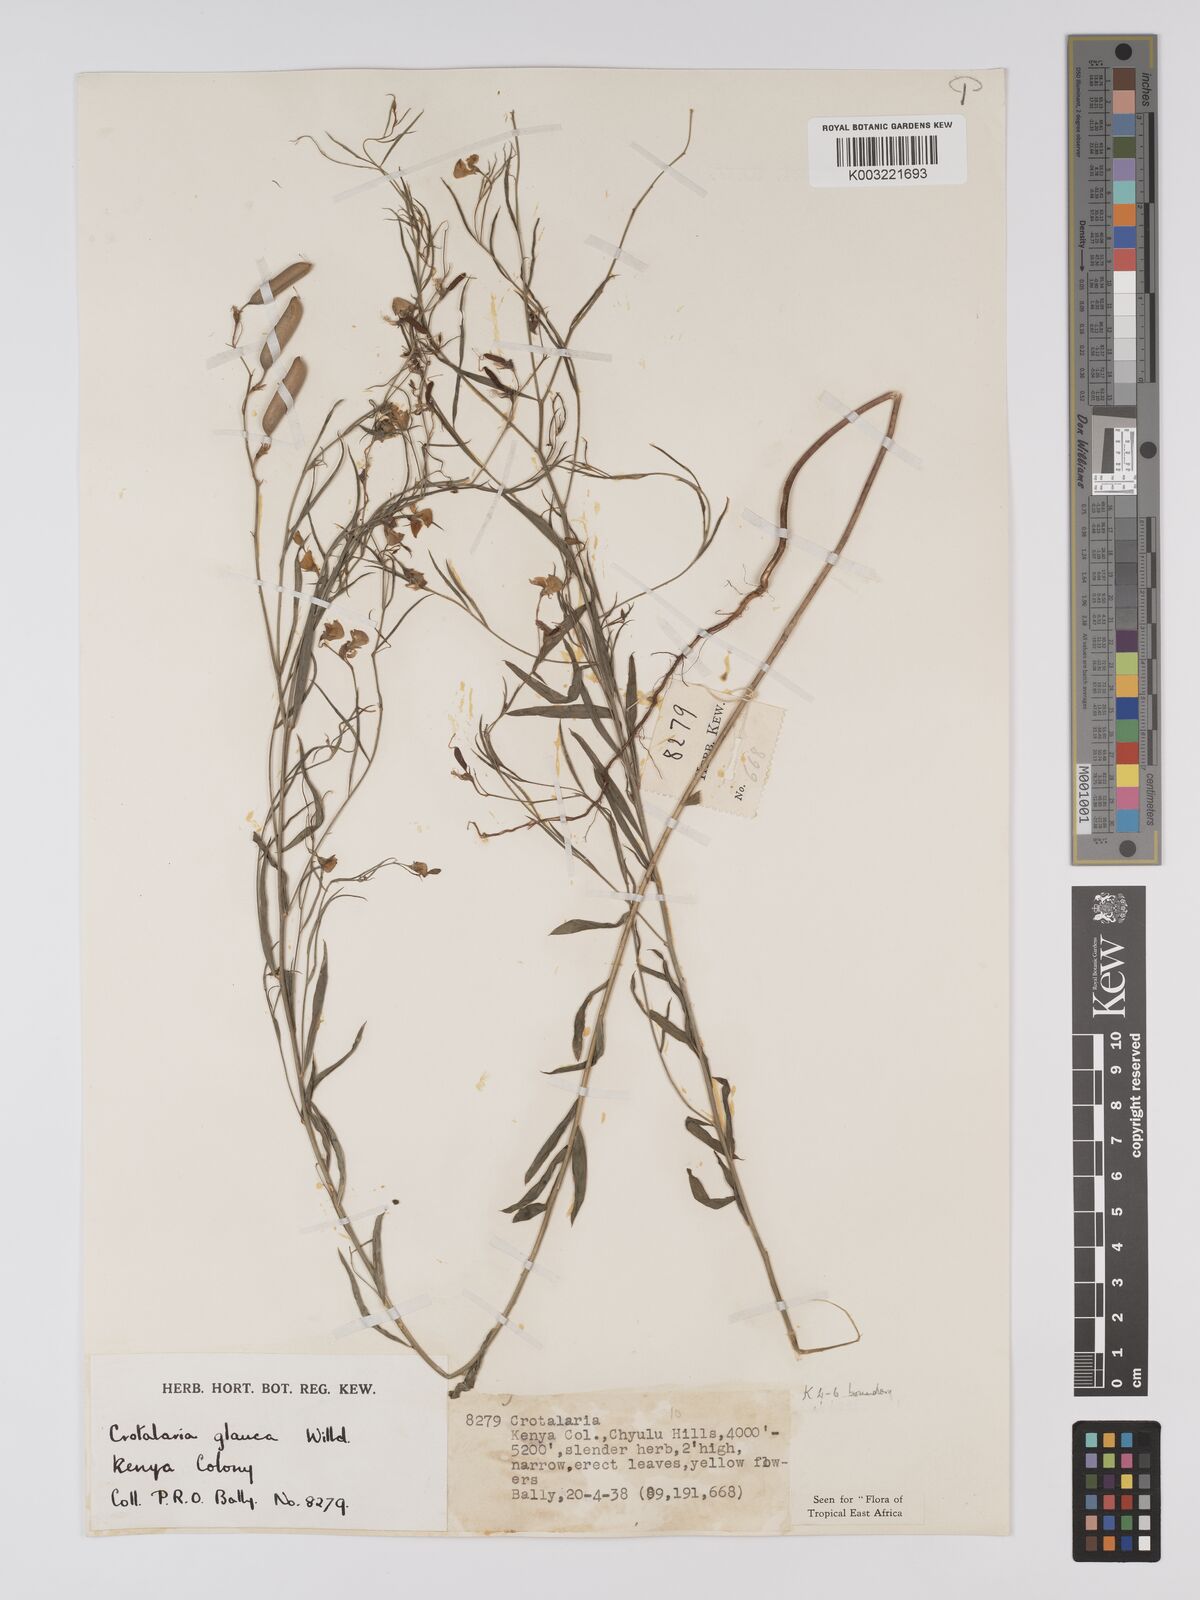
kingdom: Plantae
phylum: Tracheophyta
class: Magnoliopsida
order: Fabales
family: Fabaceae
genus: Crotalaria
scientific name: Crotalaria glauca
